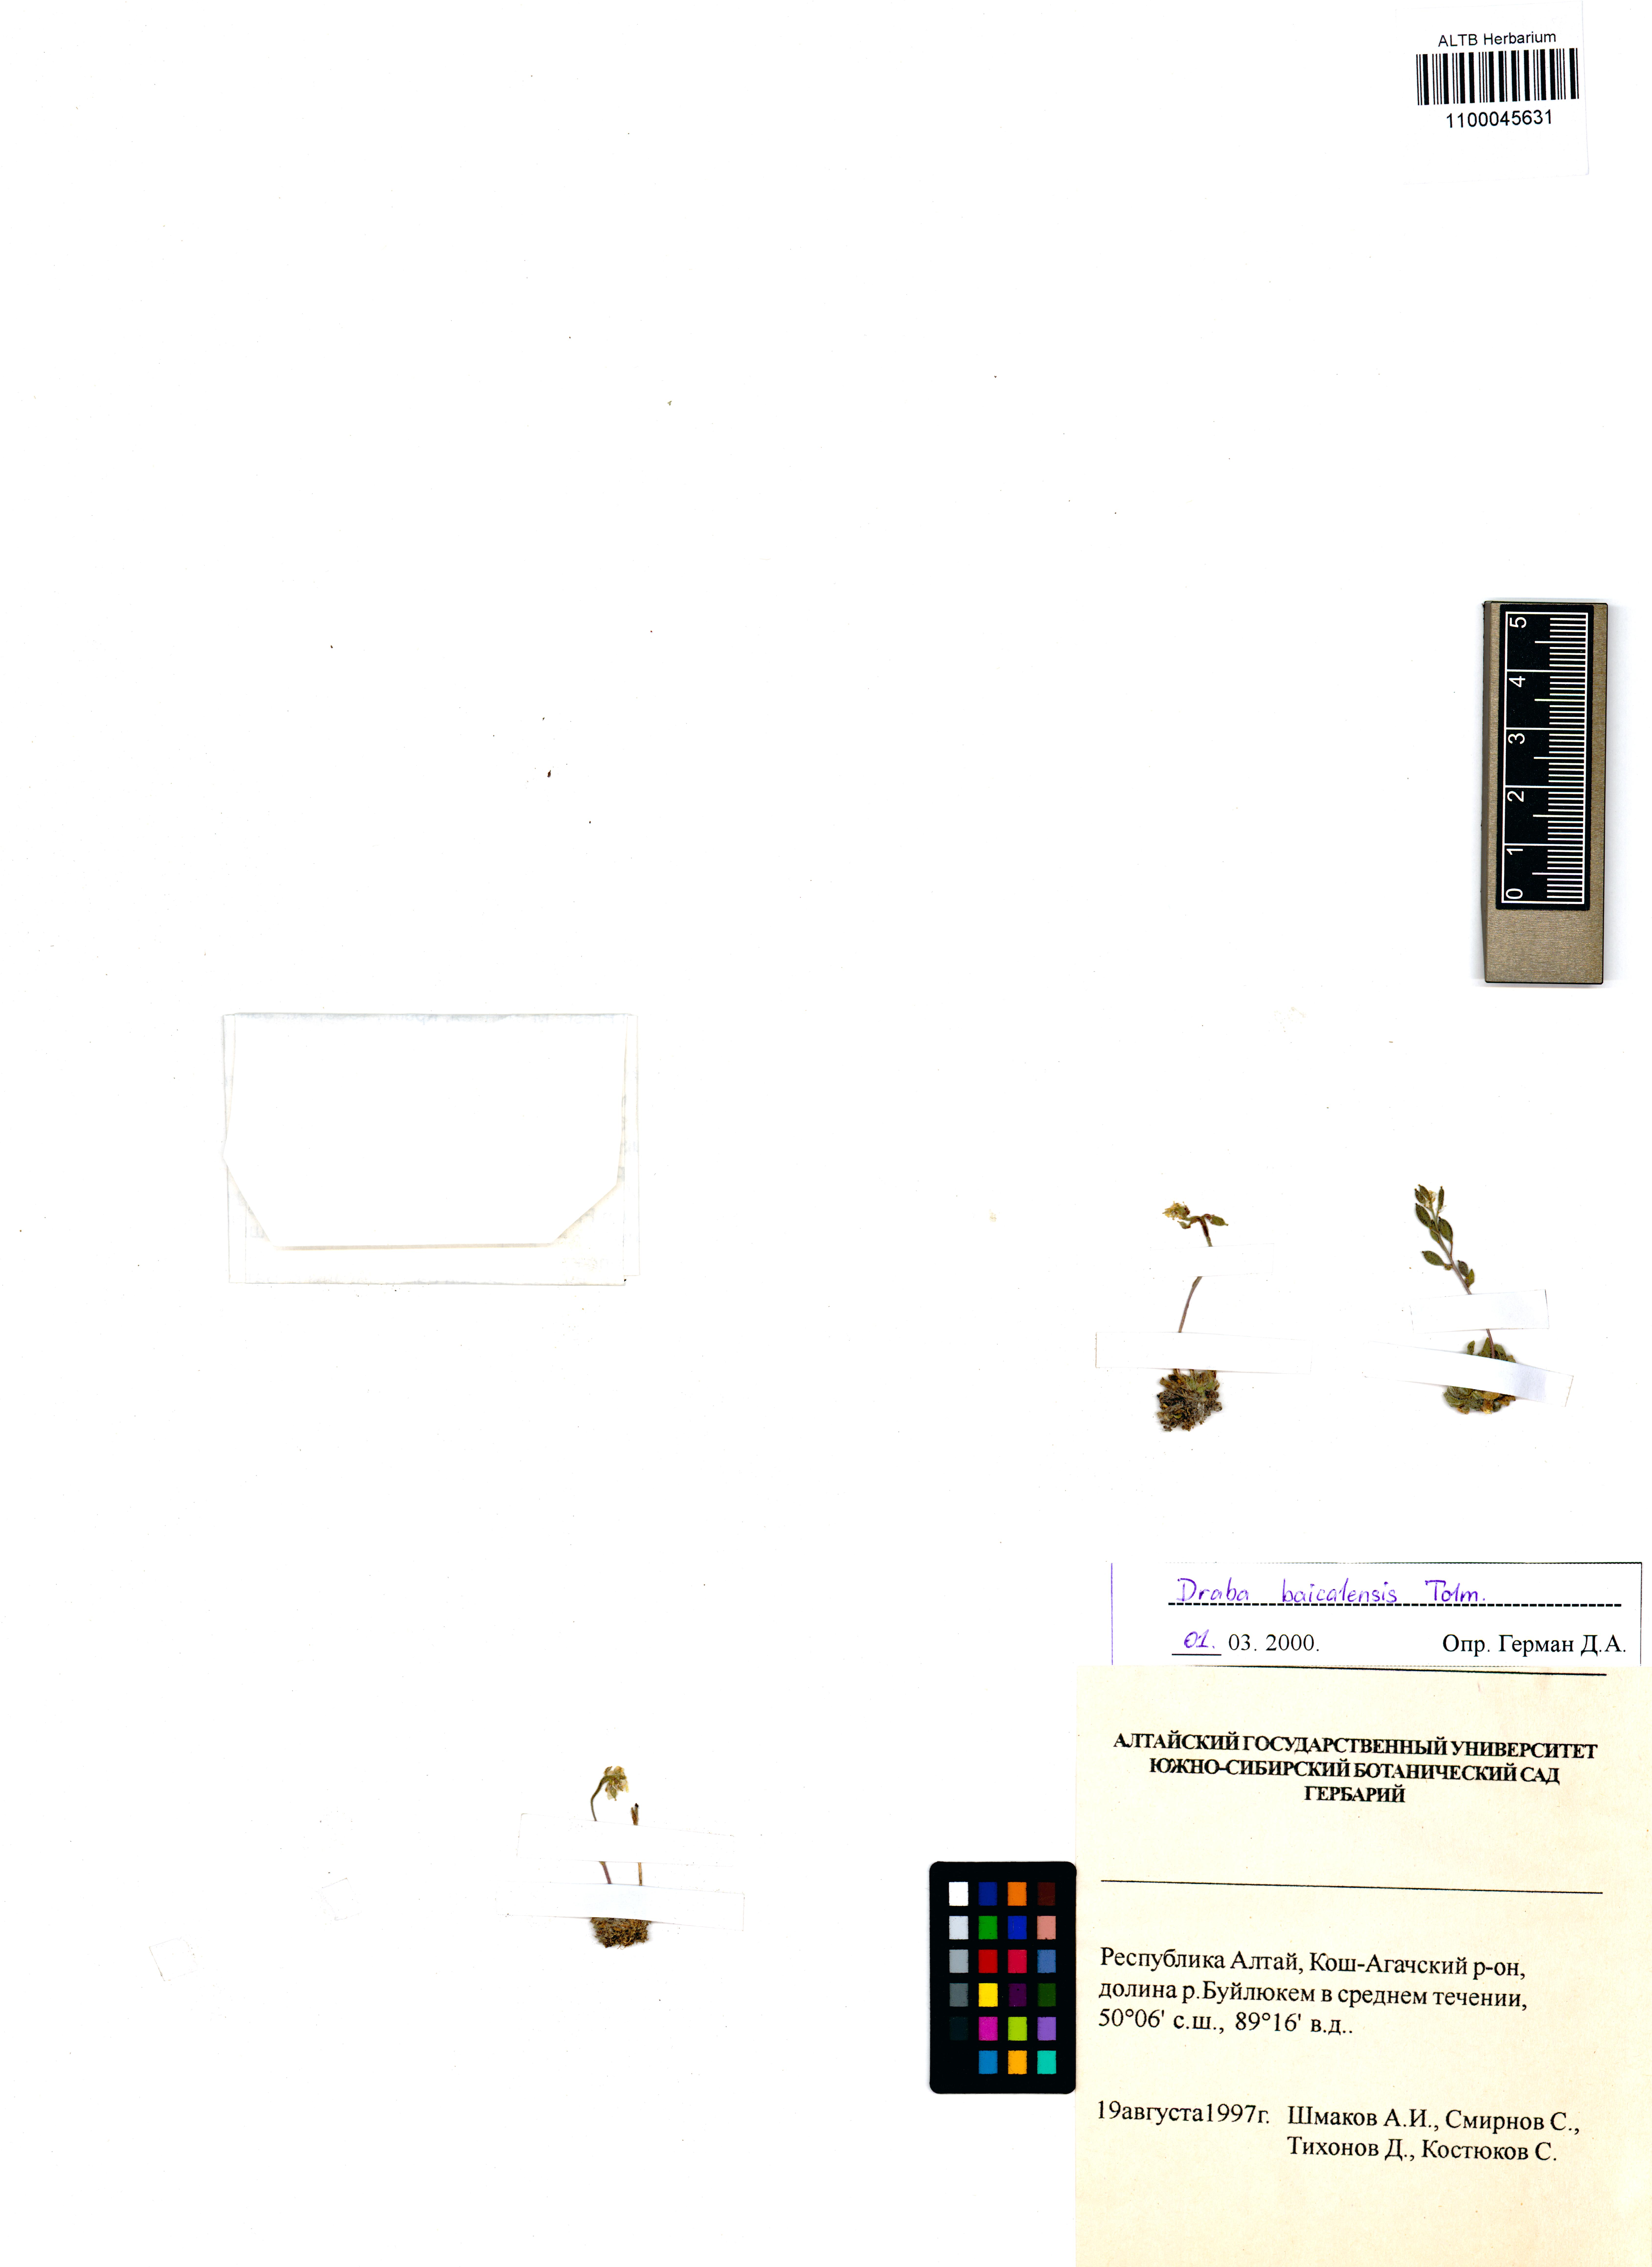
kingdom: Plantae
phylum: Tracheophyta
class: Magnoliopsida
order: Brassicales
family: Brassicaceae
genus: Draba
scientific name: Draba baicalensis
